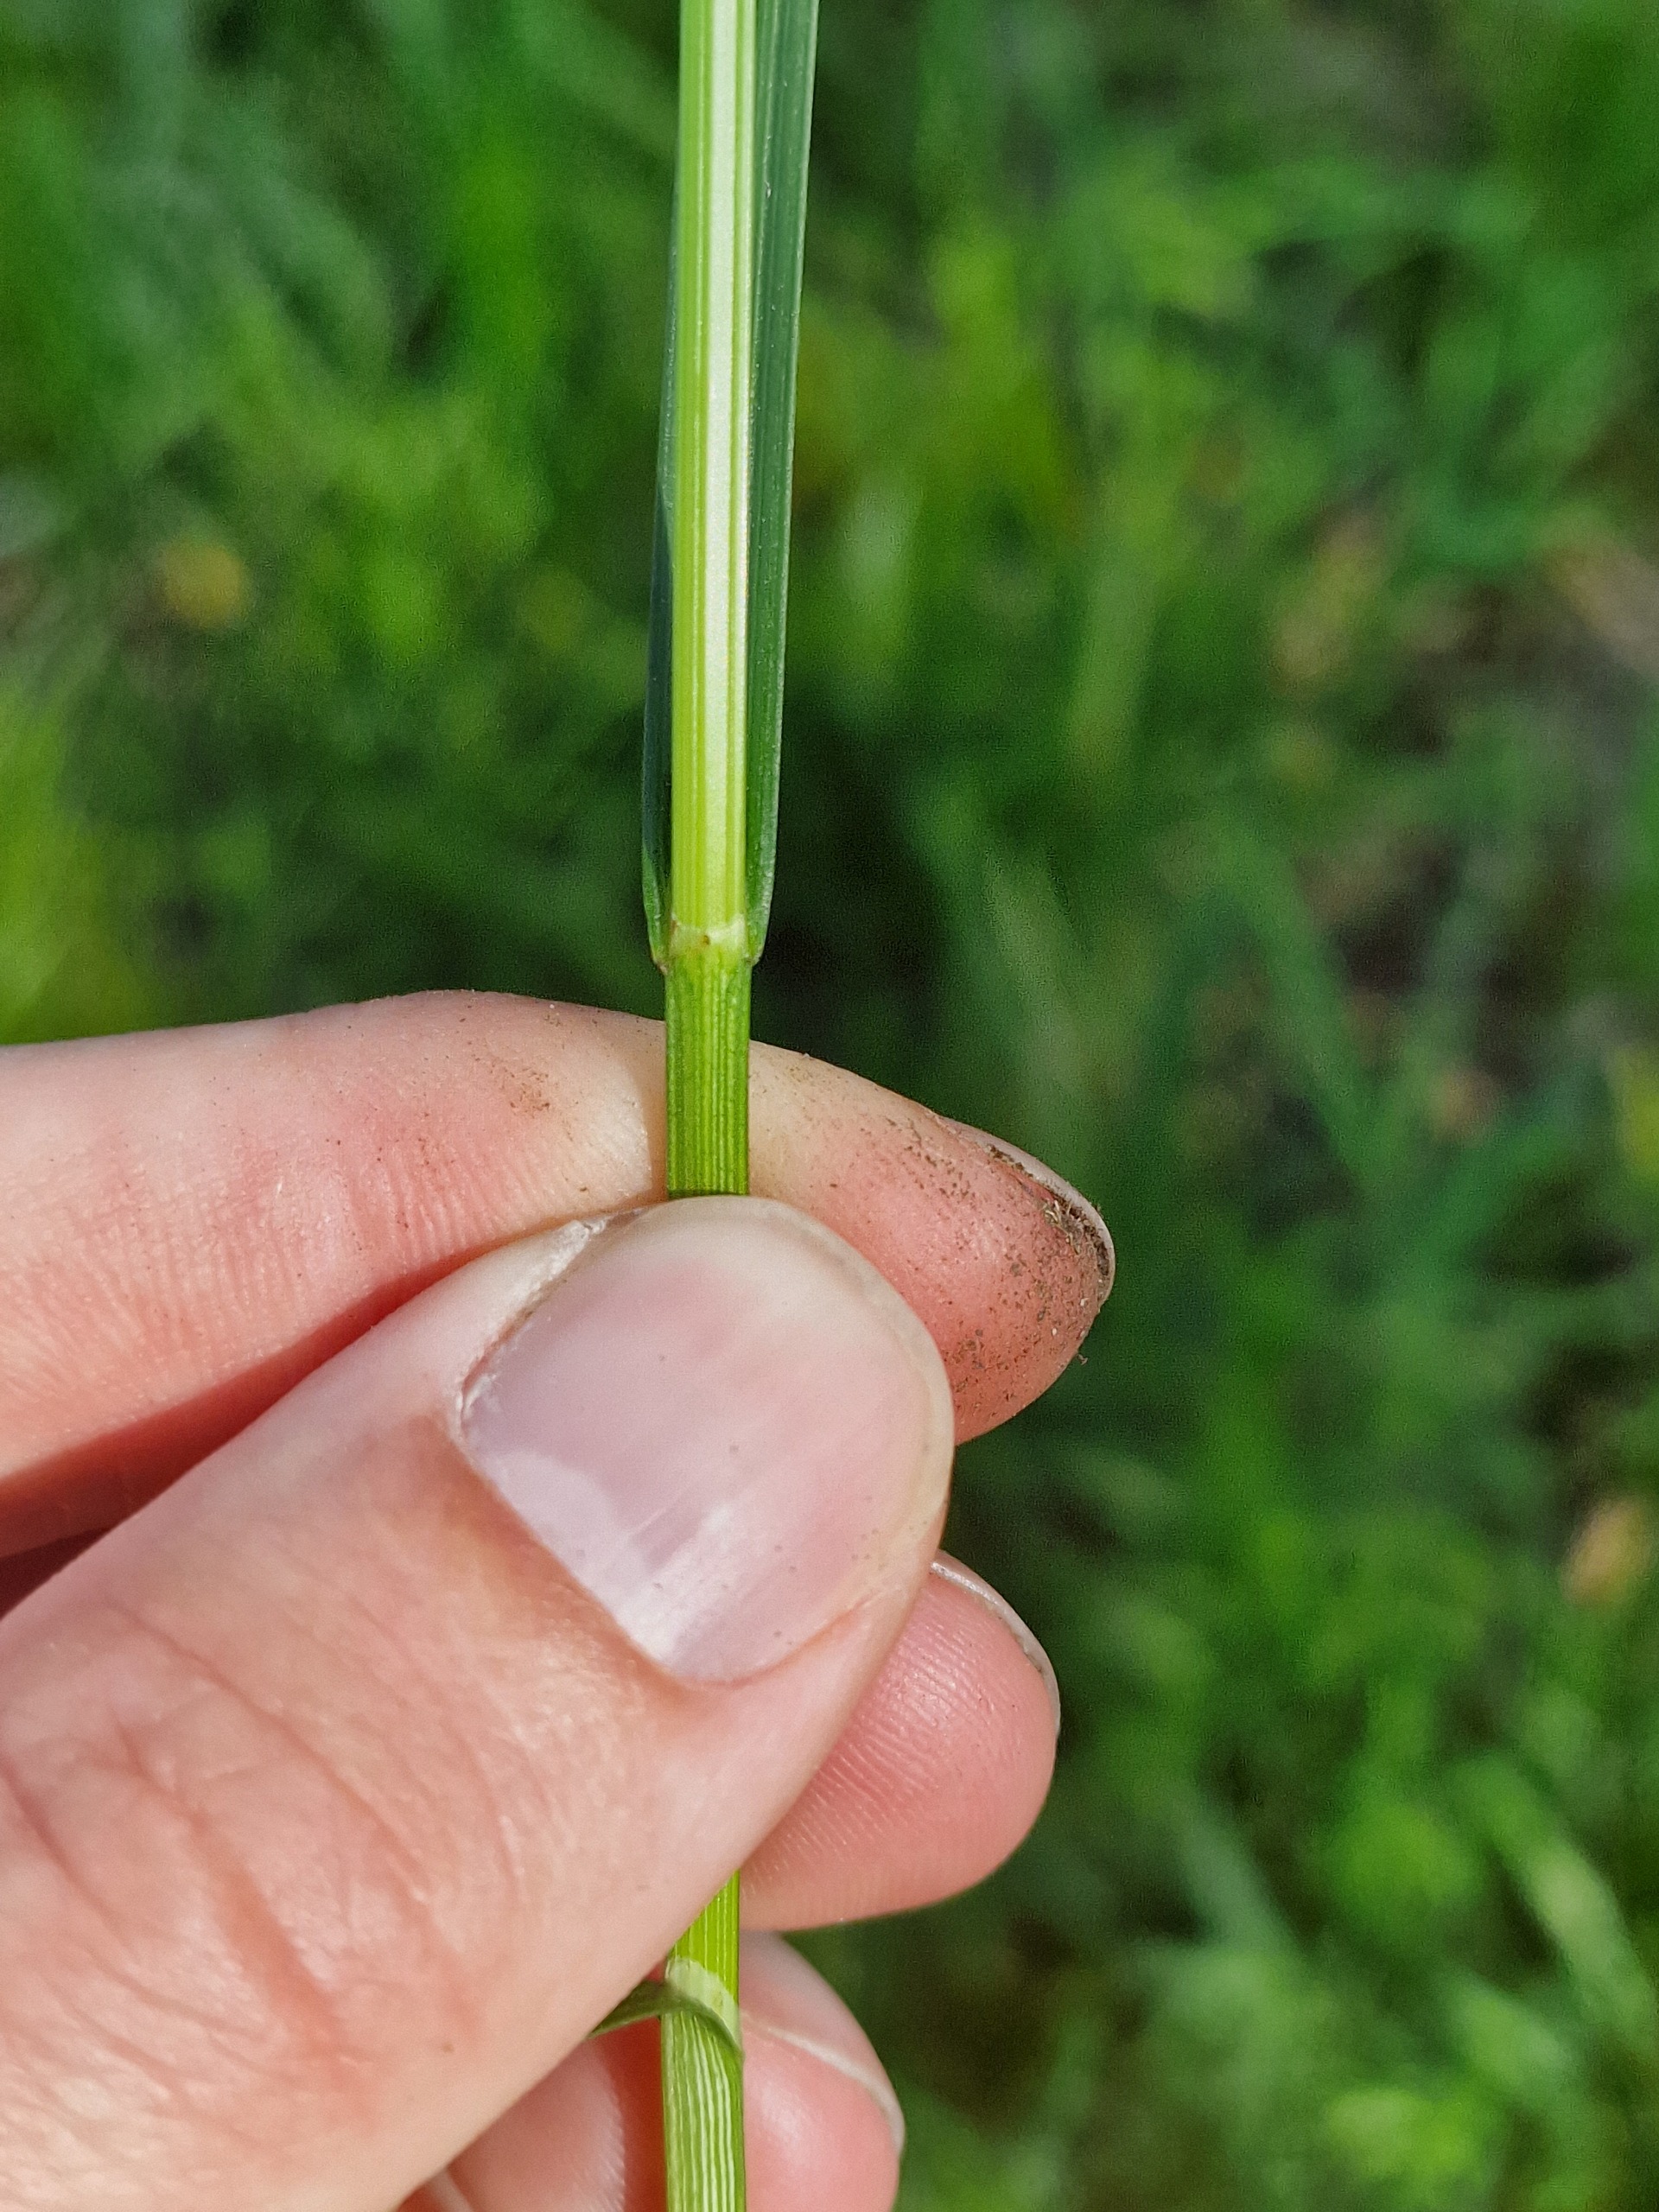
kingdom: Plantae
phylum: Tracheophyta
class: Liliopsida
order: Poales
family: Cyperaceae
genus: Carex
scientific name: Carex disticha
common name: Toradet star
